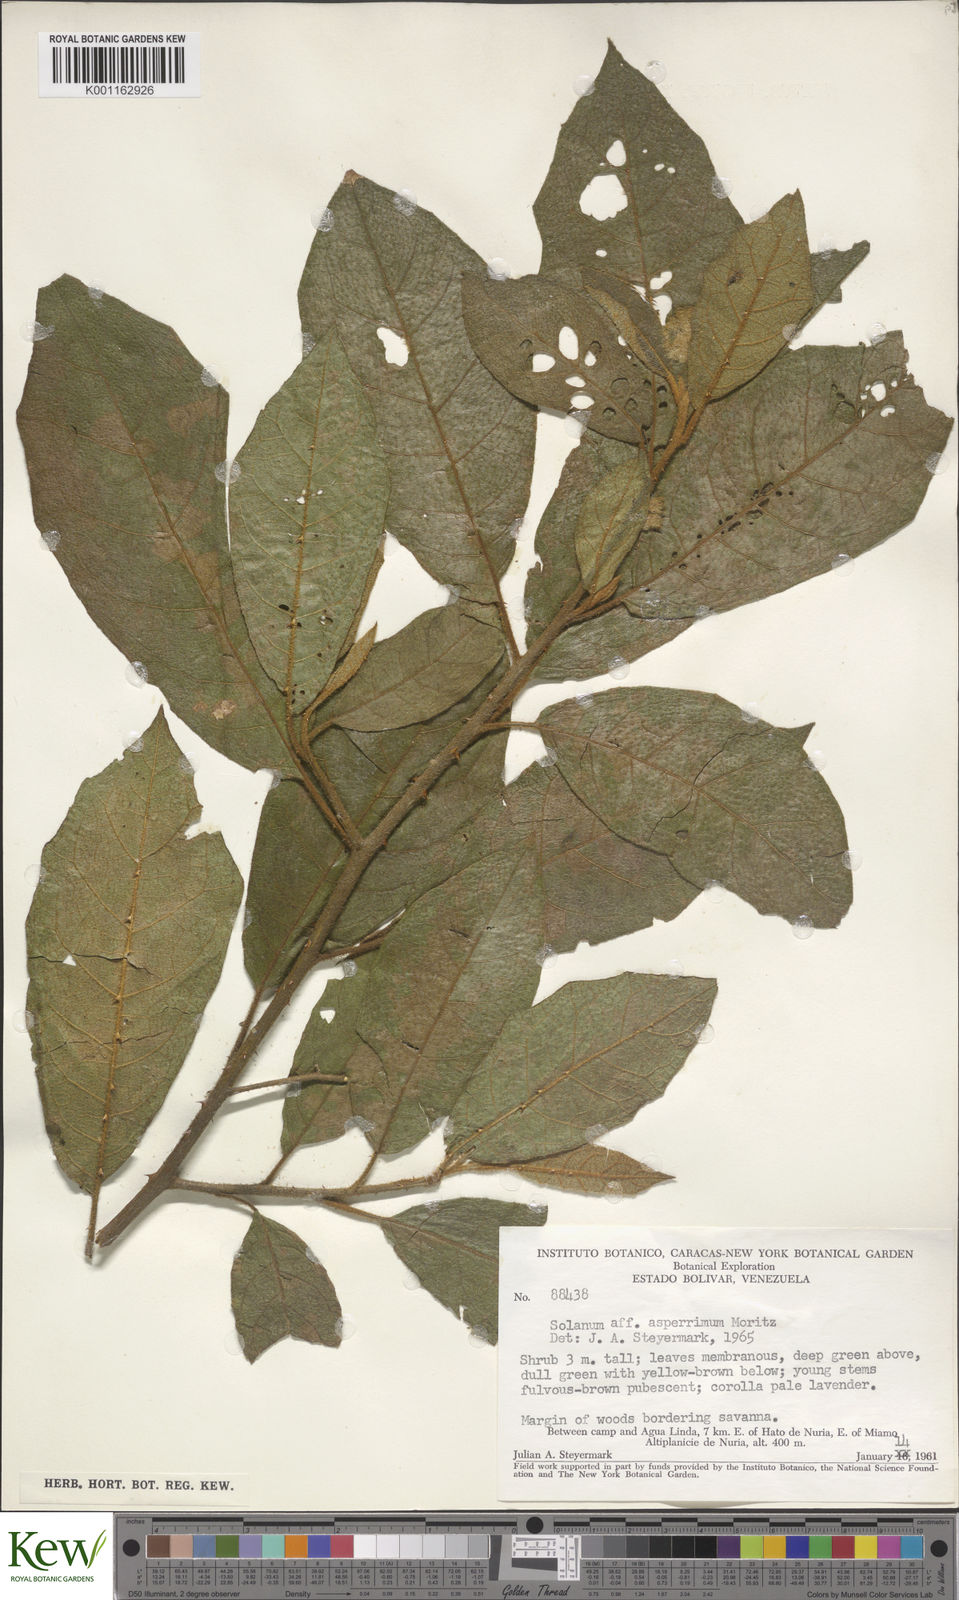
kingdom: Plantae
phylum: Tracheophyta
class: Magnoliopsida
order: Solanales
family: Solanaceae
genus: Solanum
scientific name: Solanum aturense
